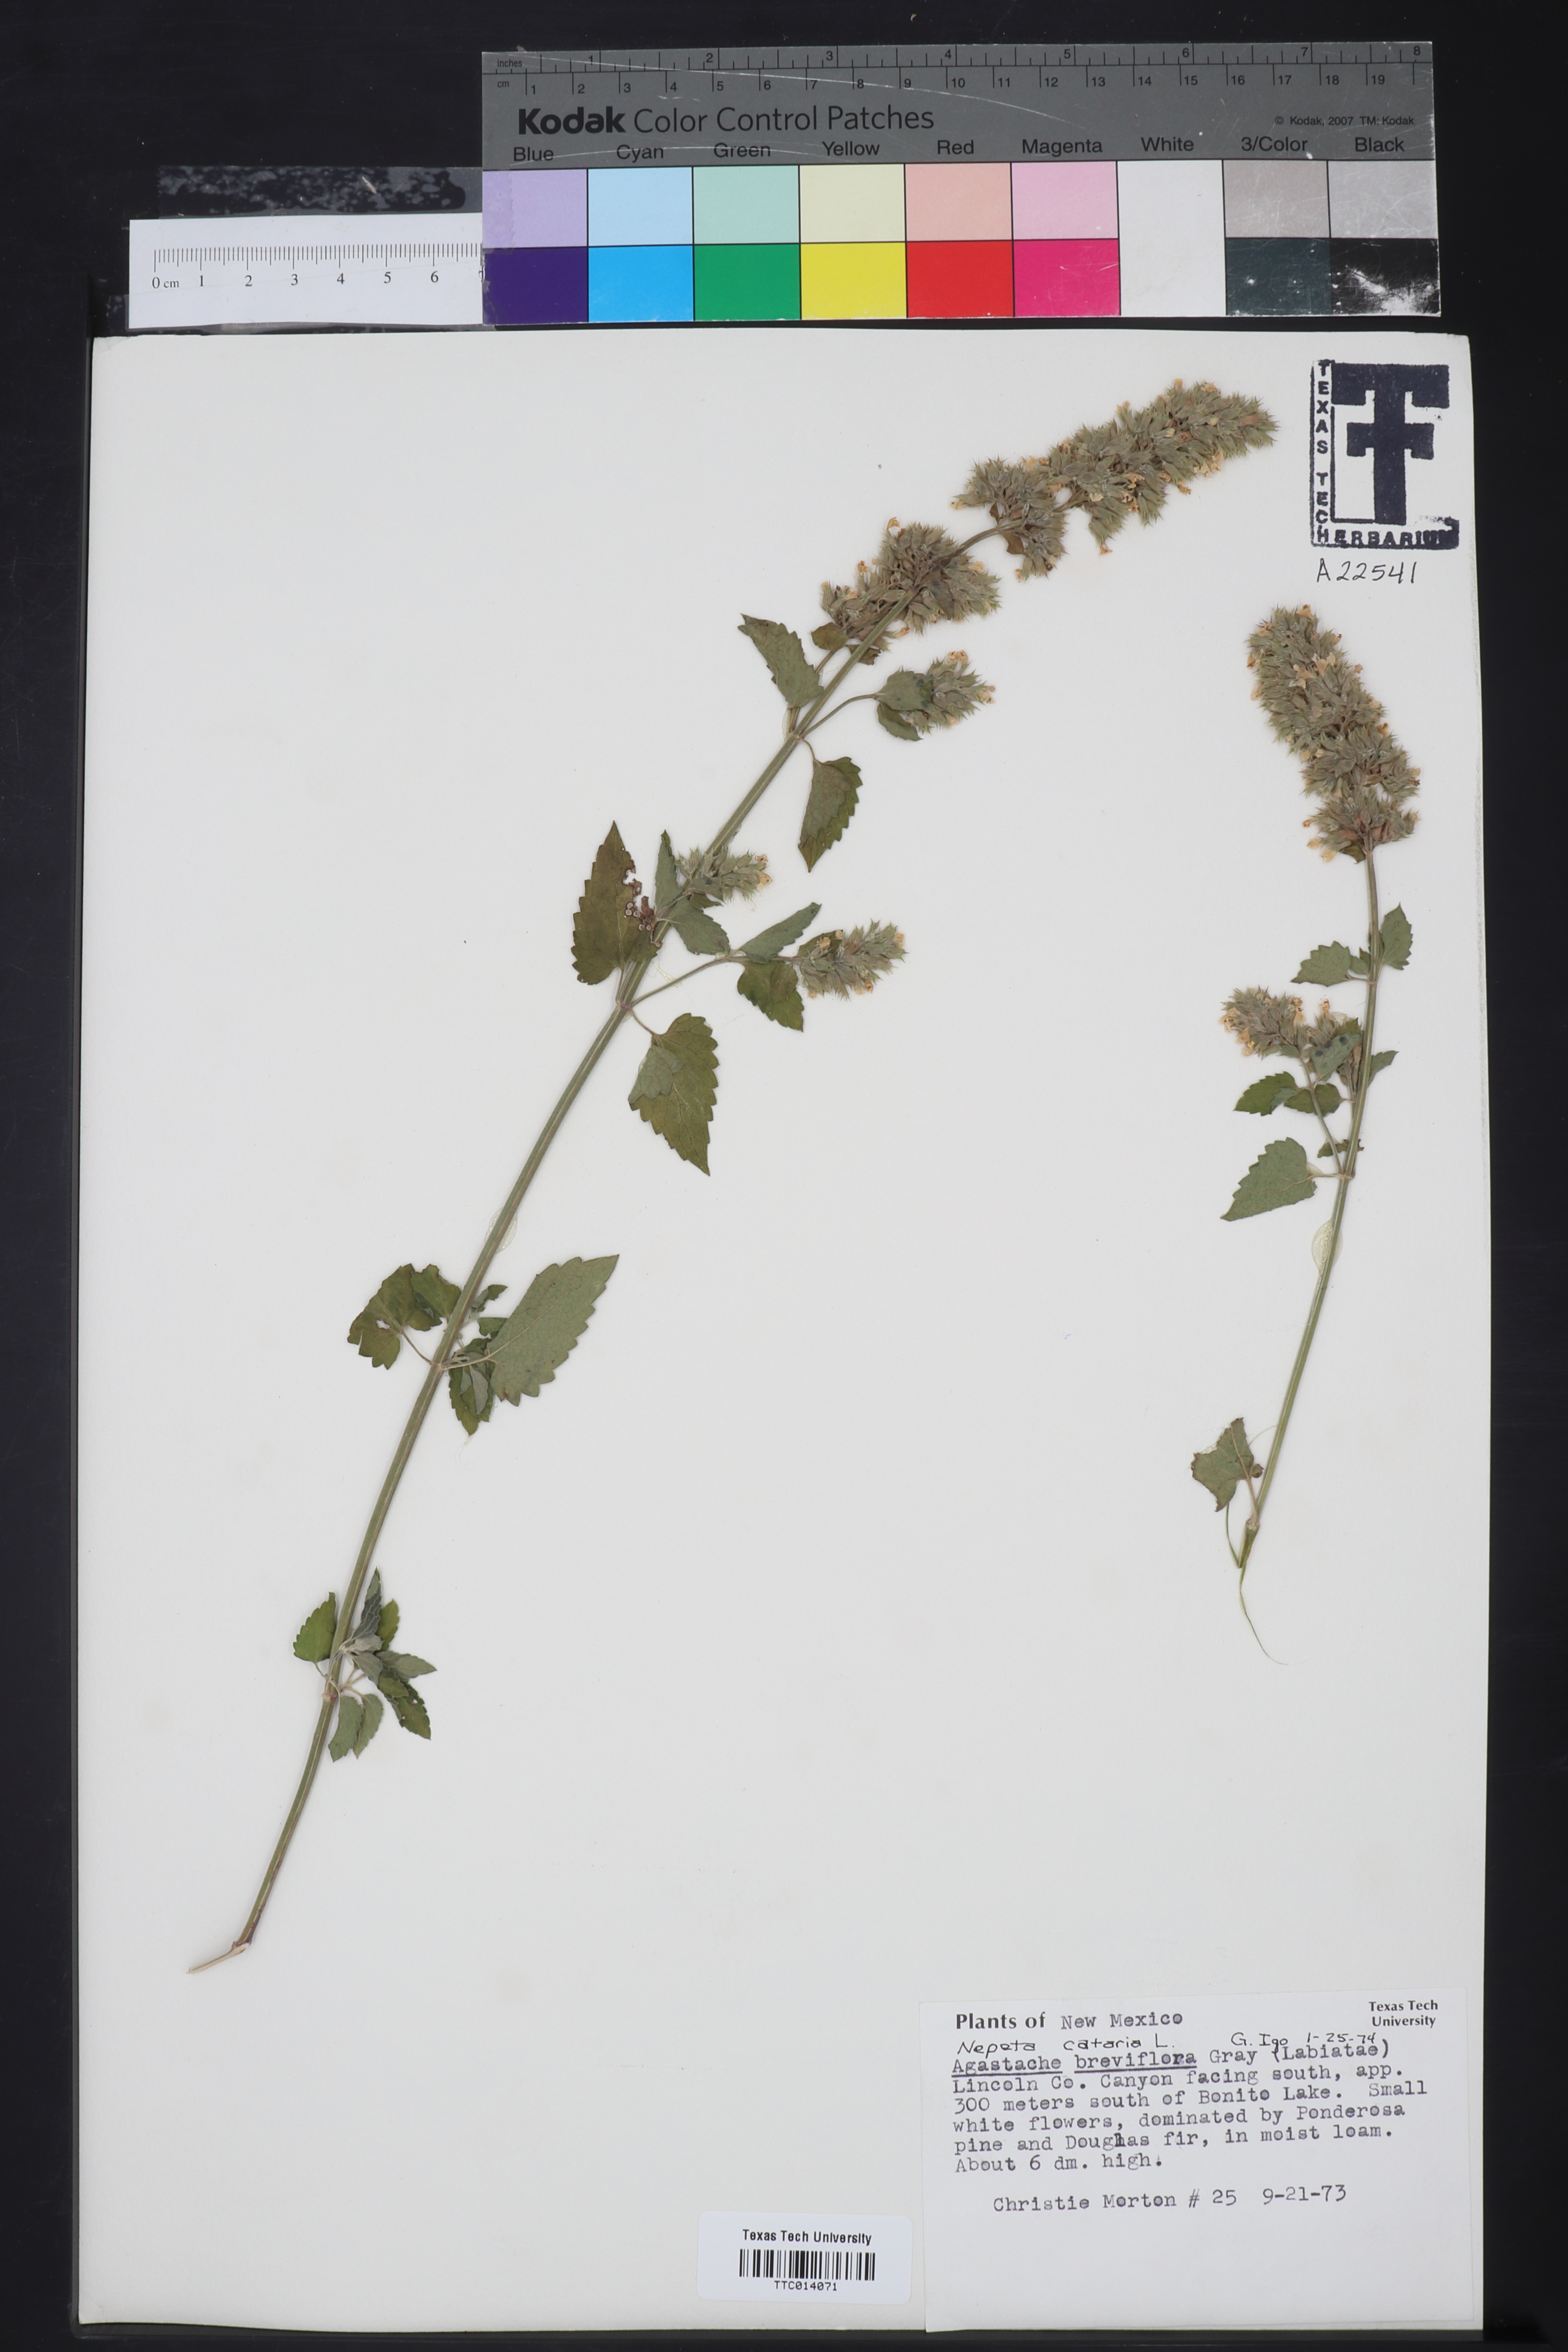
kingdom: Plantae
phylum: Tracheophyta
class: Magnoliopsida
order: Lamiales
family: Lamiaceae
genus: Nepeta
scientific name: Nepeta cataria
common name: Catnip
